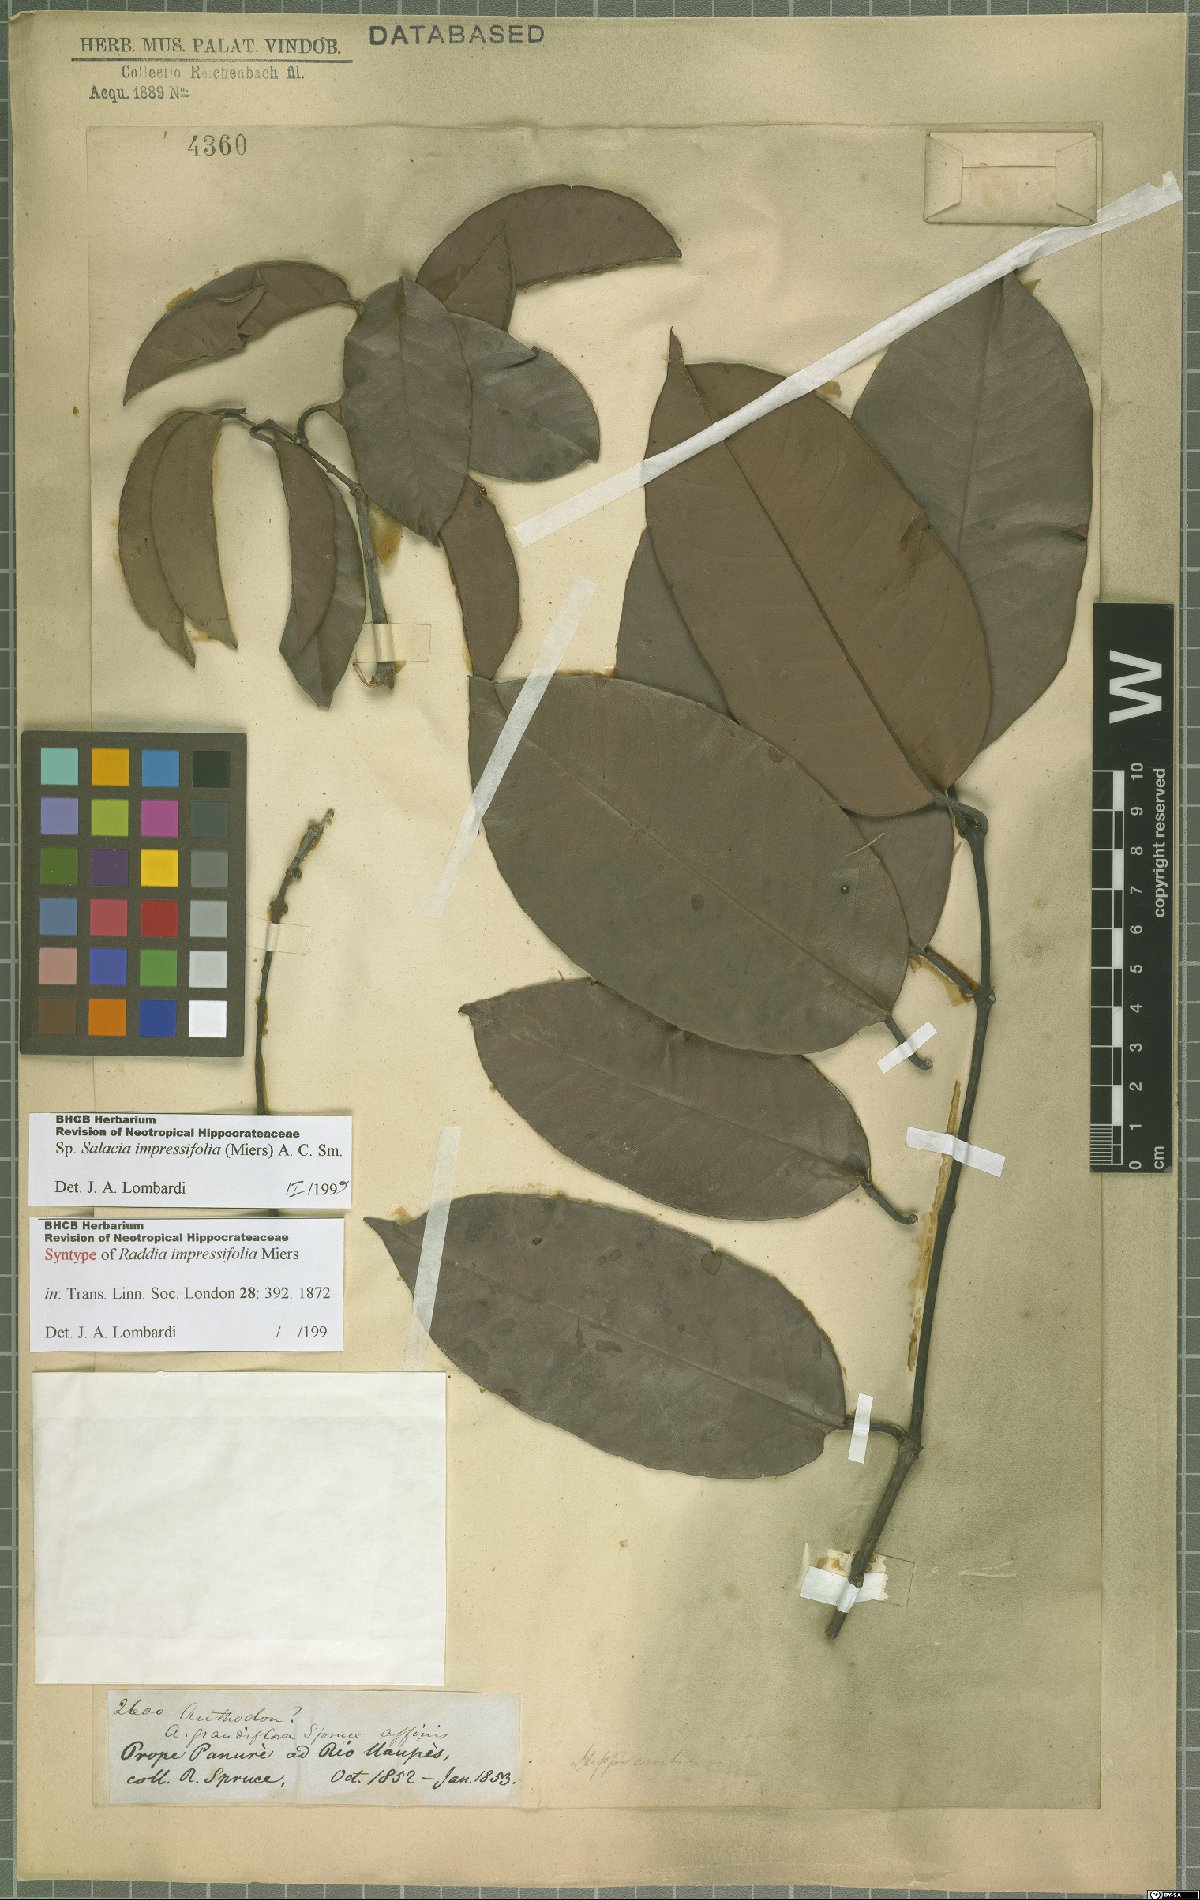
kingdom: Plantae
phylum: Tracheophyta
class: Magnoliopsida
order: Celastrales
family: Celastraceae
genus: Salacia
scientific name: Salacia impressifolia
